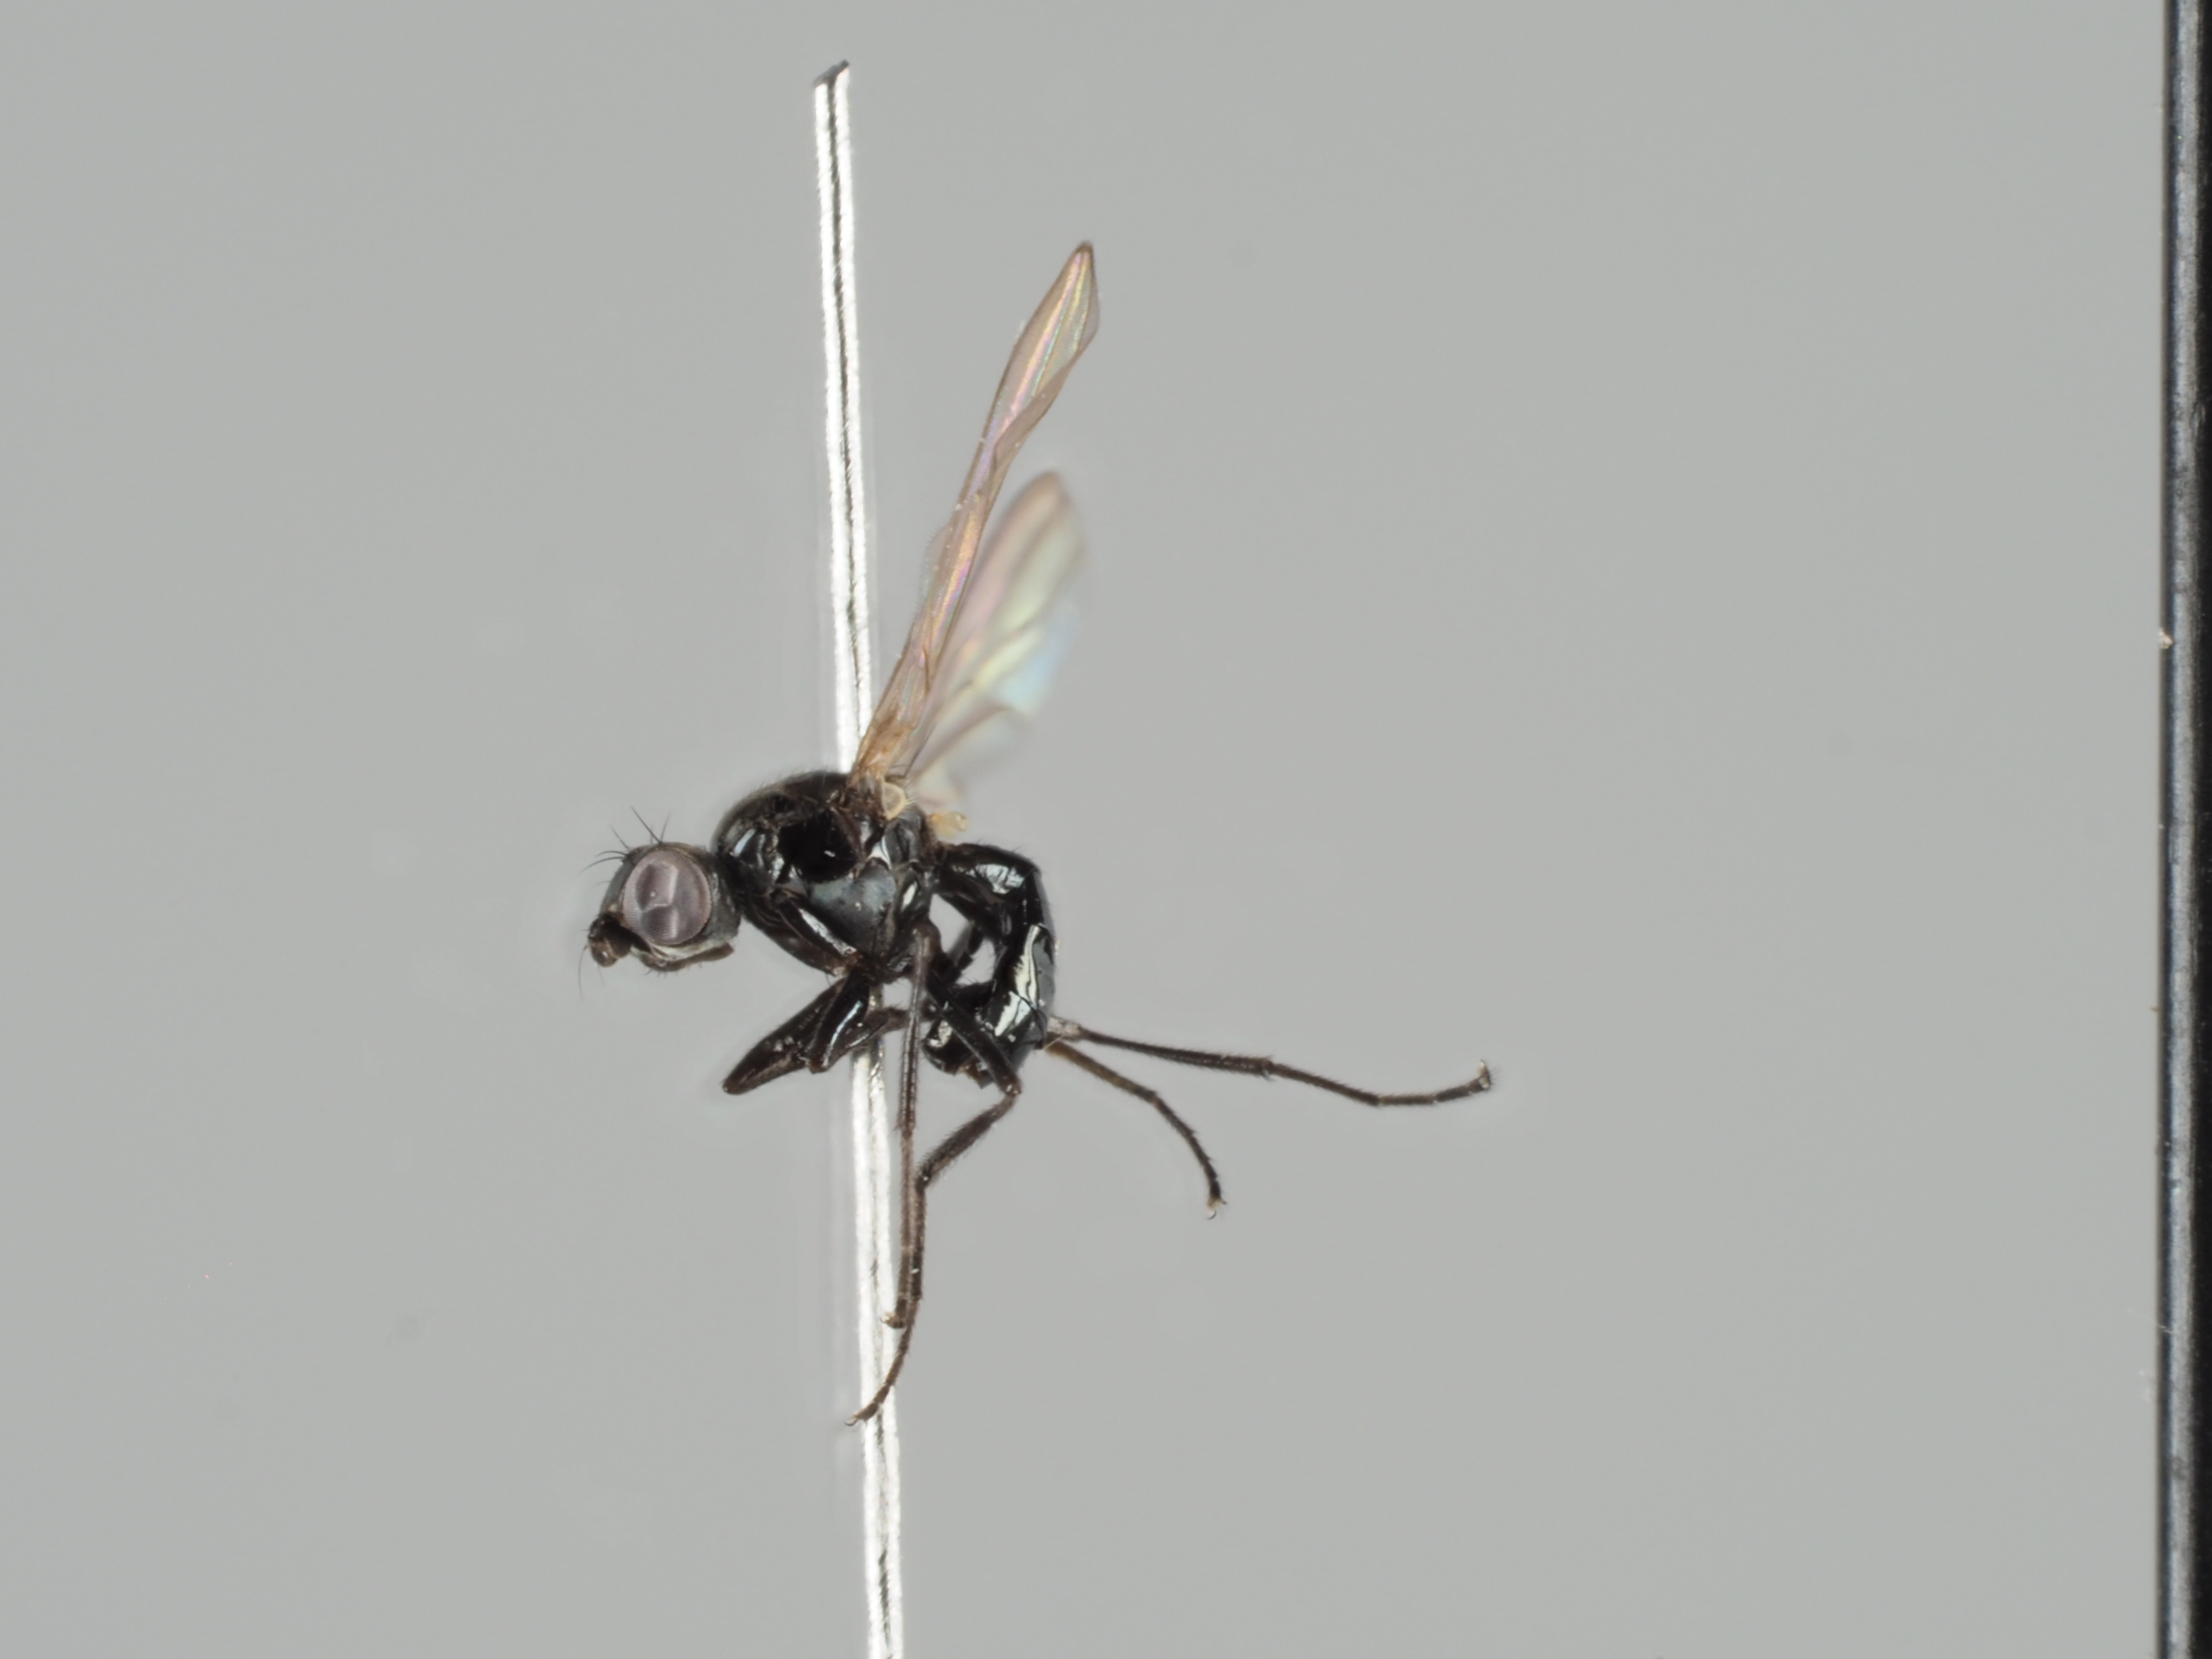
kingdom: Animalia
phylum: Arthropoda
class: Insecta
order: Diptera
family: Sepsidae
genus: Themira
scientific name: Themira lucida
